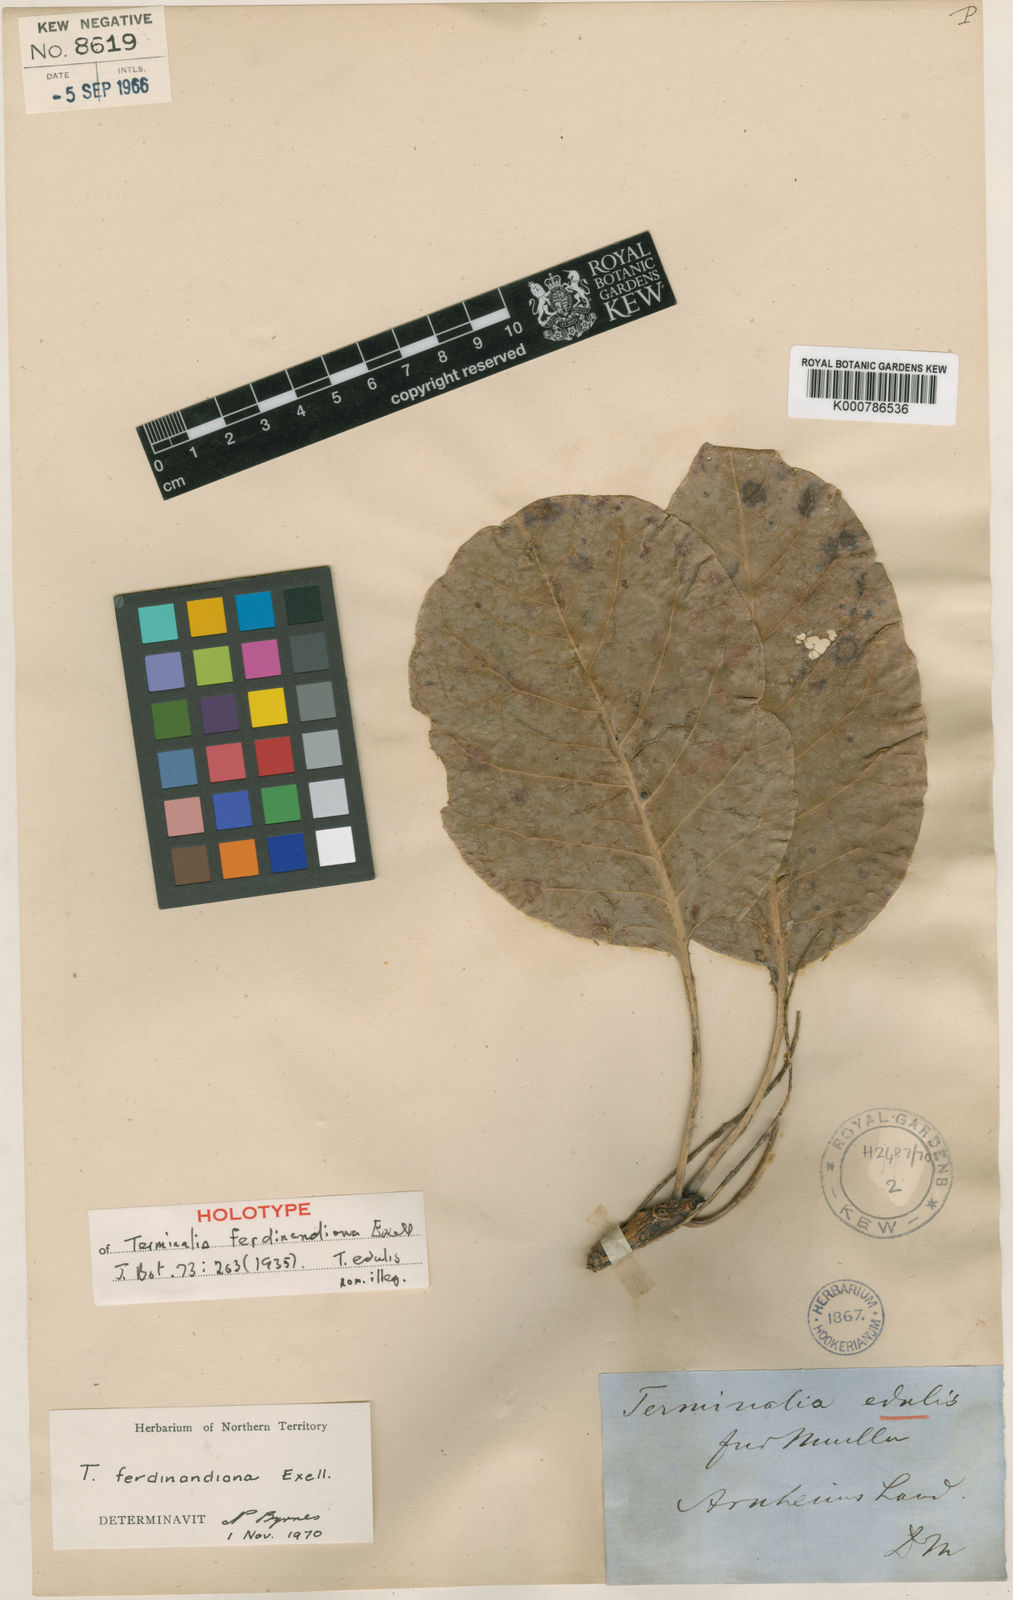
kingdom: Plantae
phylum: Tracheophyta
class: Magnoliopsida
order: Myrtales
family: Combretaceae
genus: Terminalia
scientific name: Terminalia ferdinandiana
